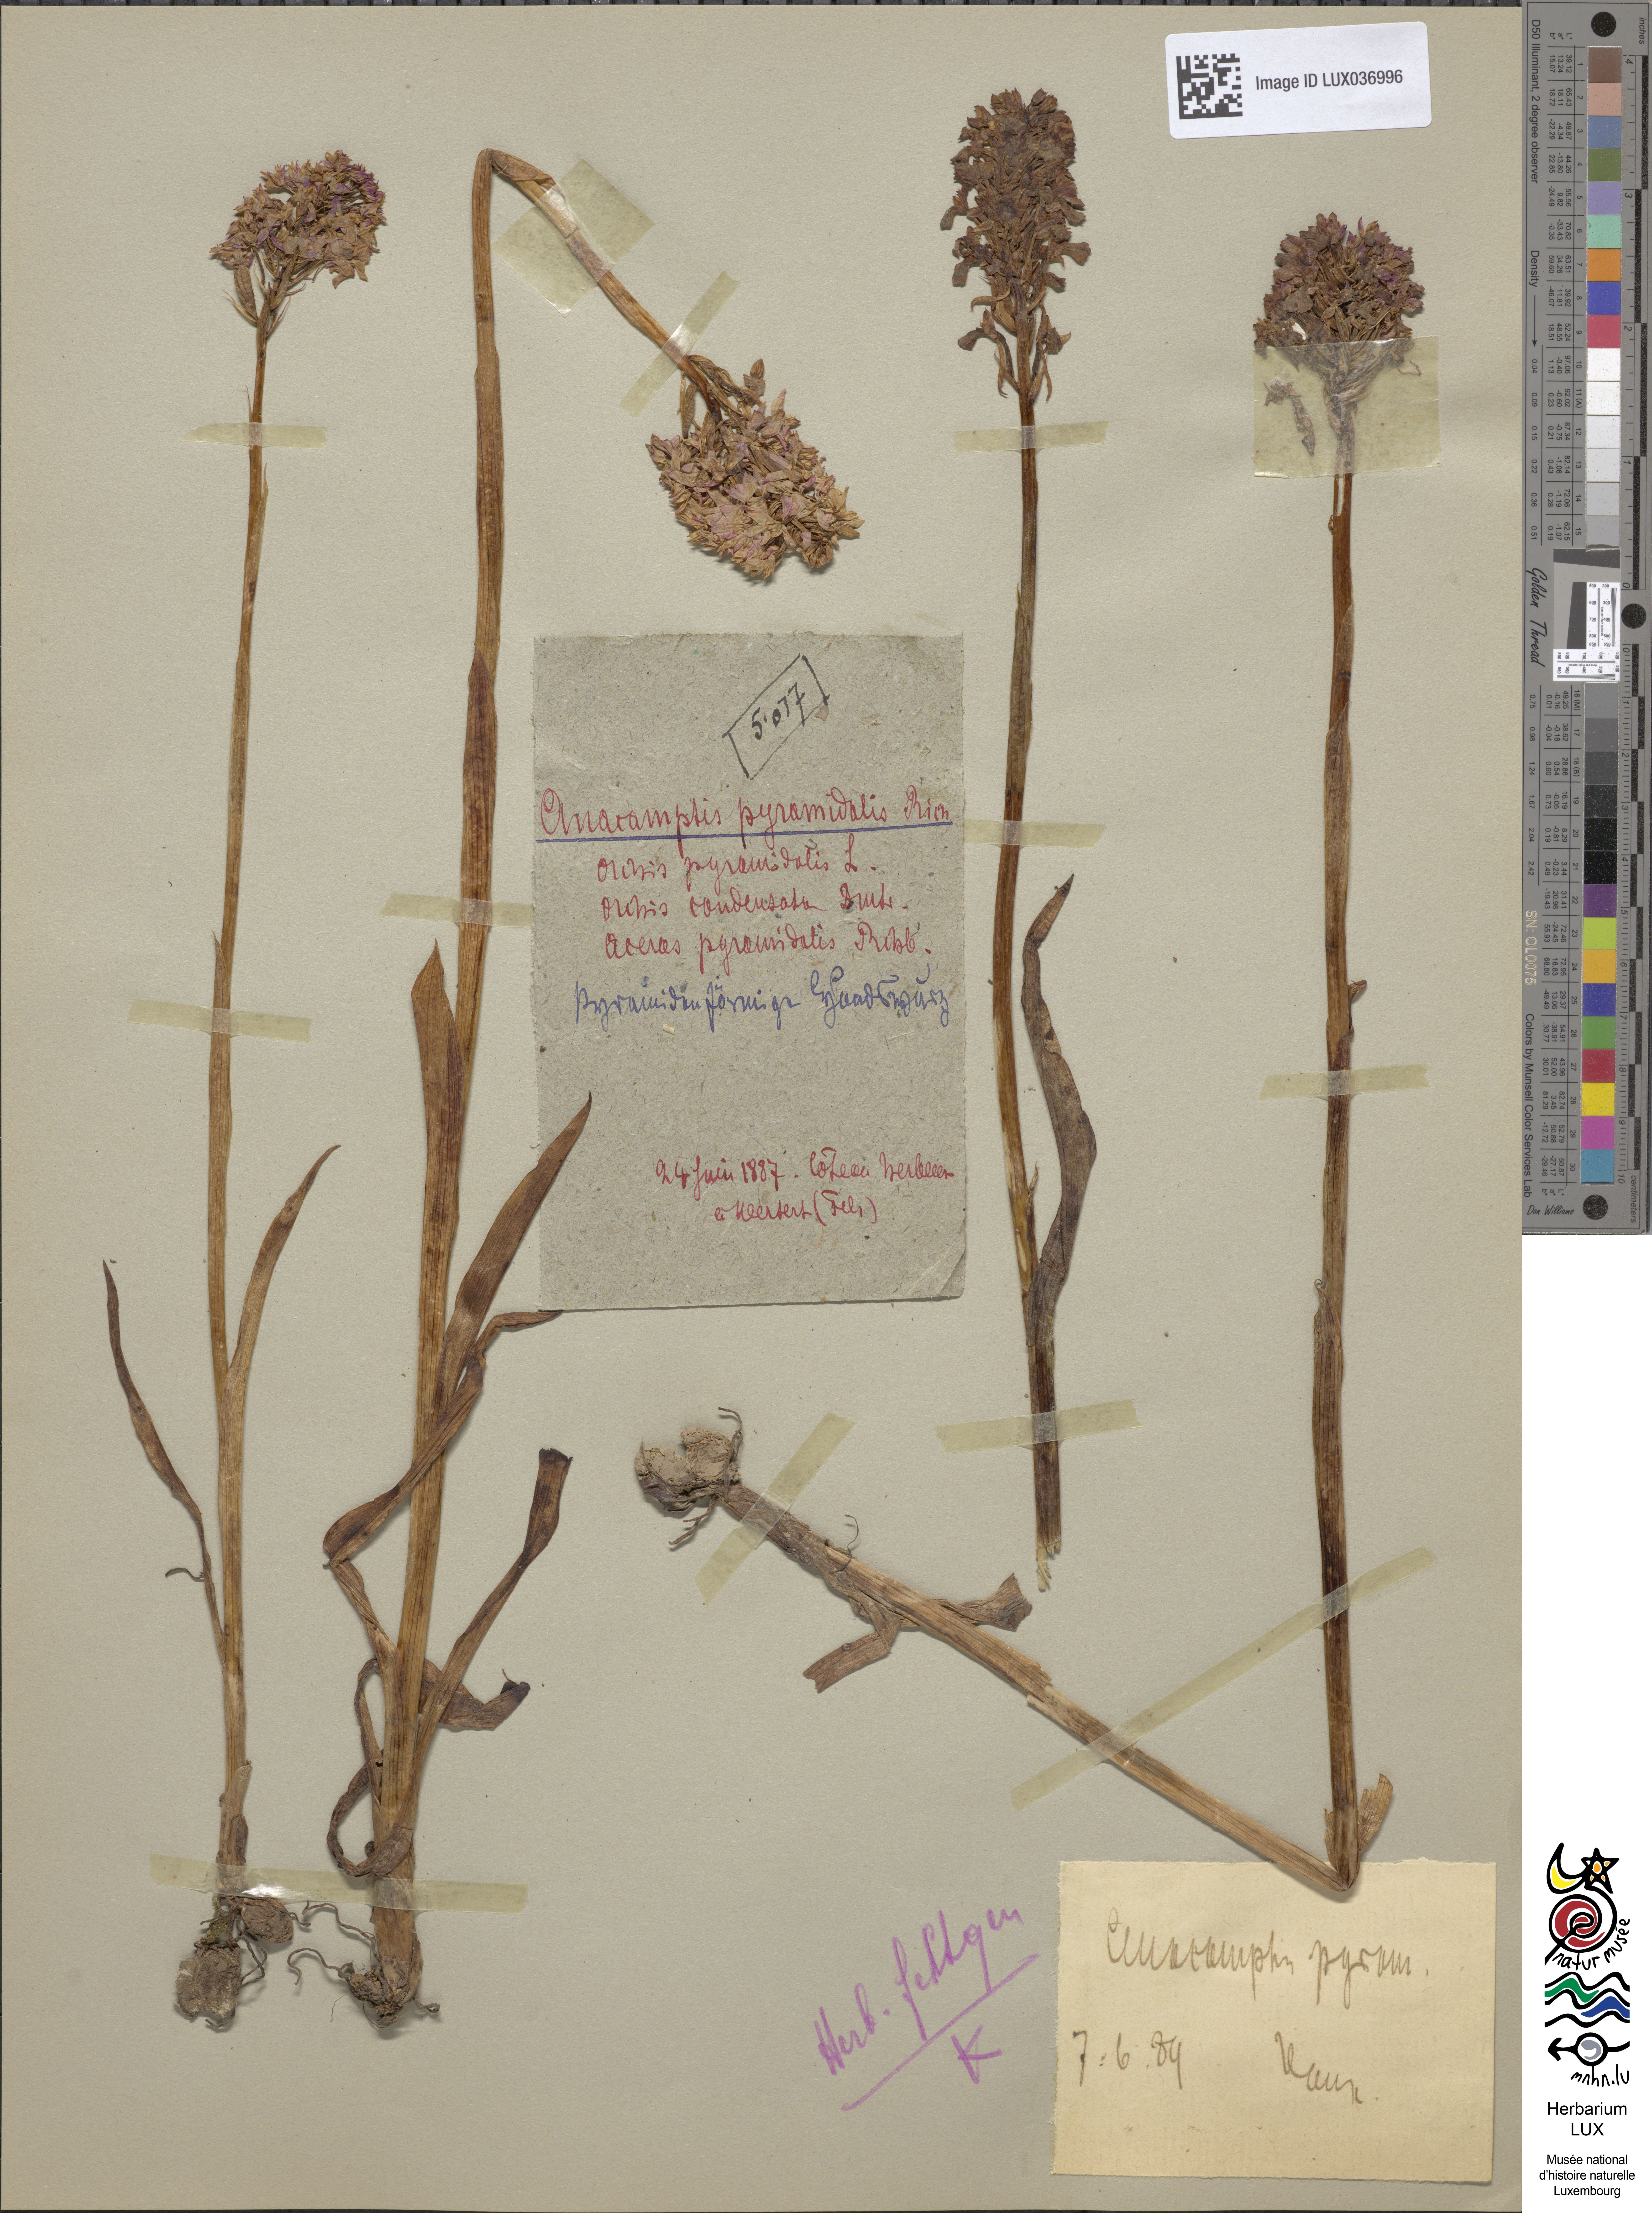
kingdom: Plantae
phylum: Tracheophyta
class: Liliopsida
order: Asparagales
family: Orchidaceae
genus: Anacamptis
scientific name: Anacamptis pyramidalis
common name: Pyramidal orchid
